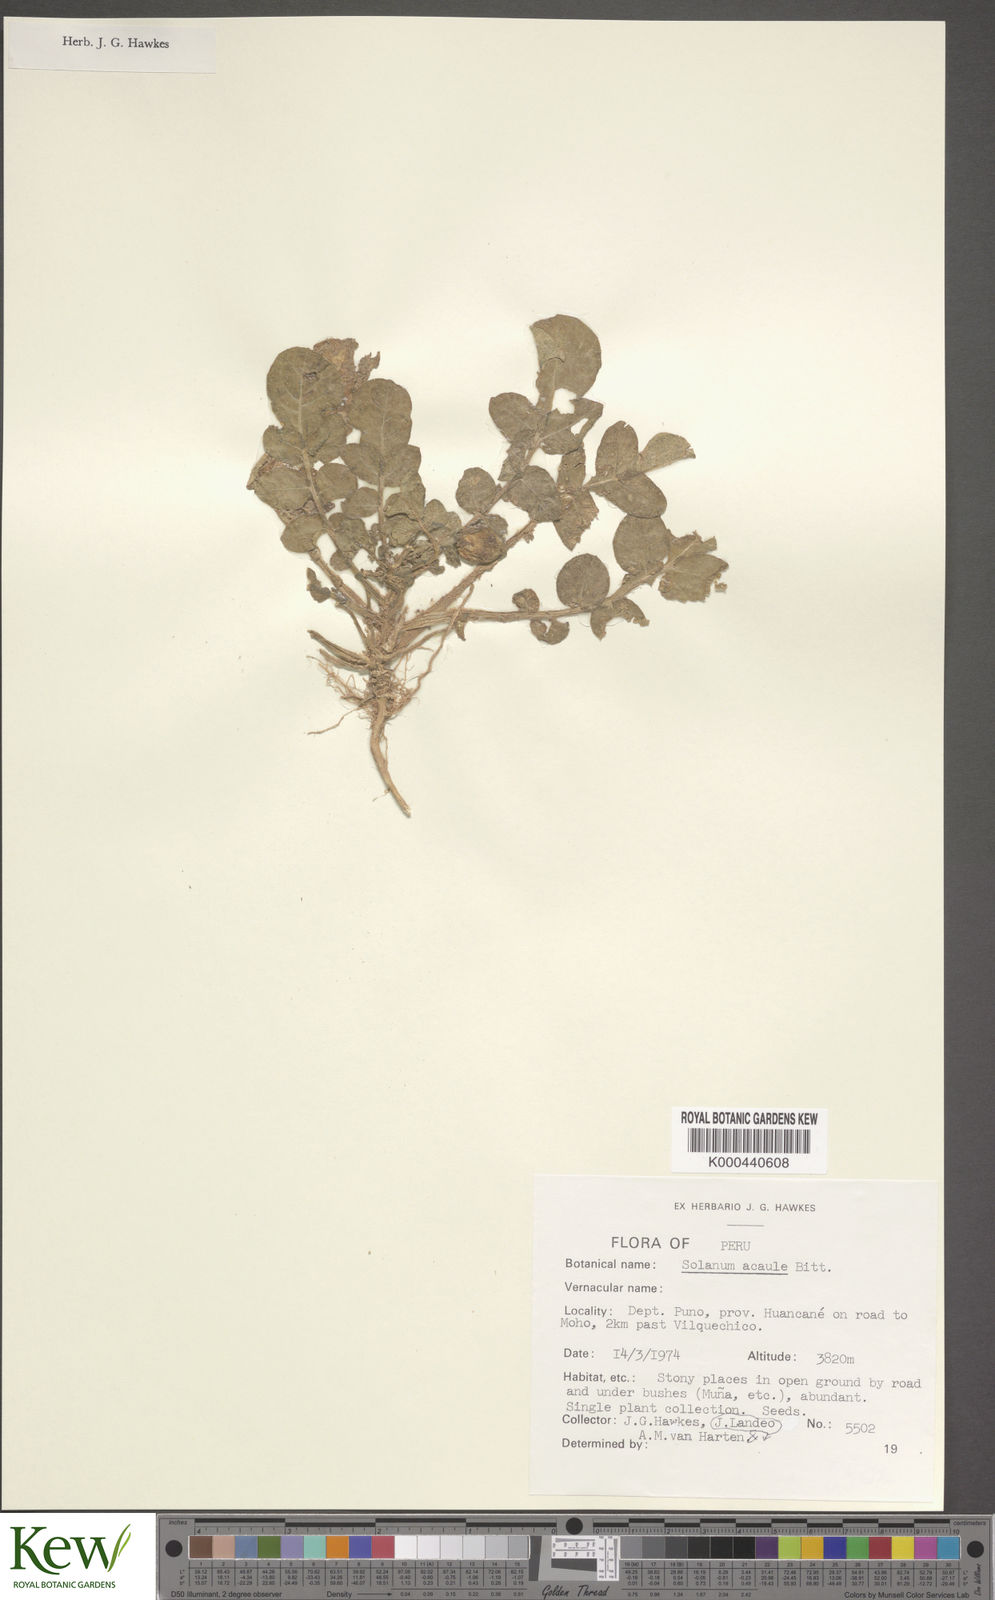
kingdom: Plantae
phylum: Tracheophyta
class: Magnoliopsida
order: Solanales
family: Solanaceae
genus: Solanum
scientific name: Solanum acaule
